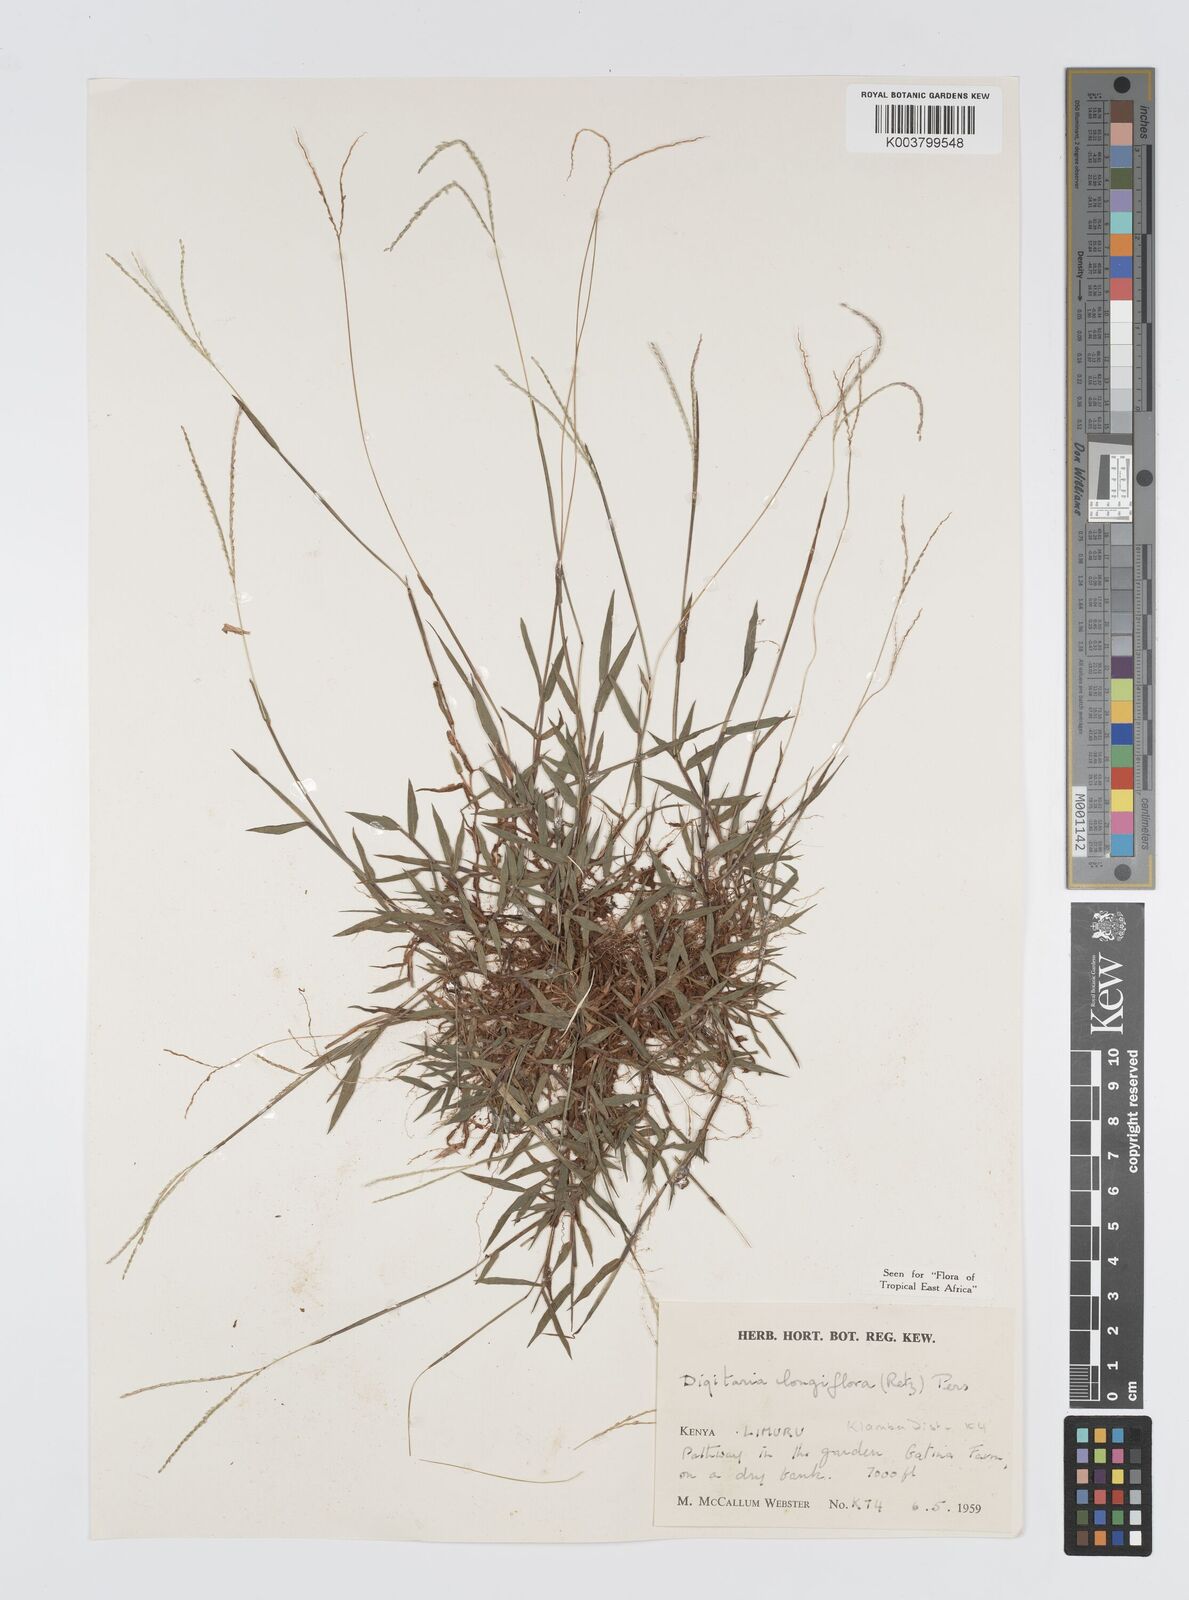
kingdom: Plantae
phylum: Tracheophyta
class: Liliopsida
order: Poales
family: Poaceae
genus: Digitaria
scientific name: Digitaria longiflora
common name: Wire crabgrass
